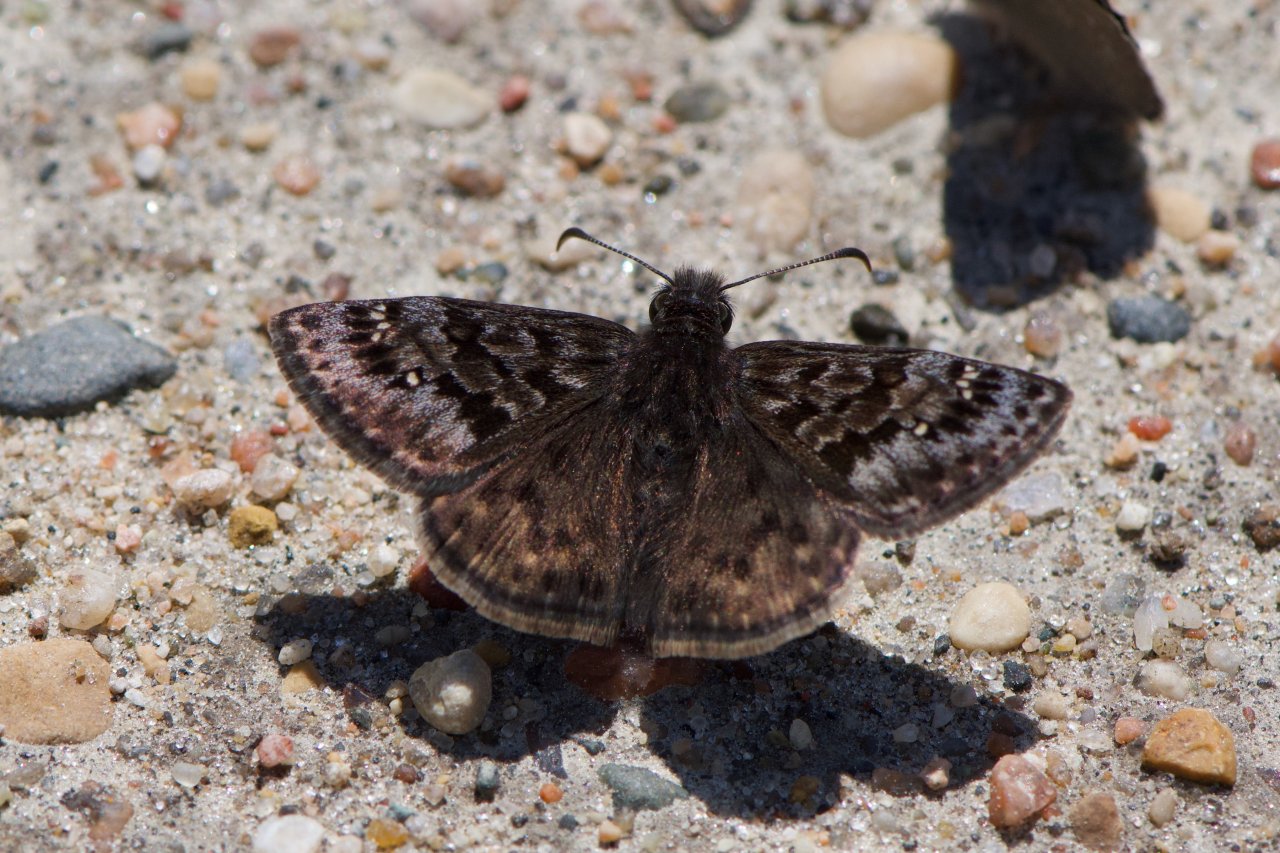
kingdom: Animalia
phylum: Arthropoda
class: Insecta
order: Lepidoptera
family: Hesperiidae
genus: Erynnis
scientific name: Erynnis martialis
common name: Mottled Duskywing
